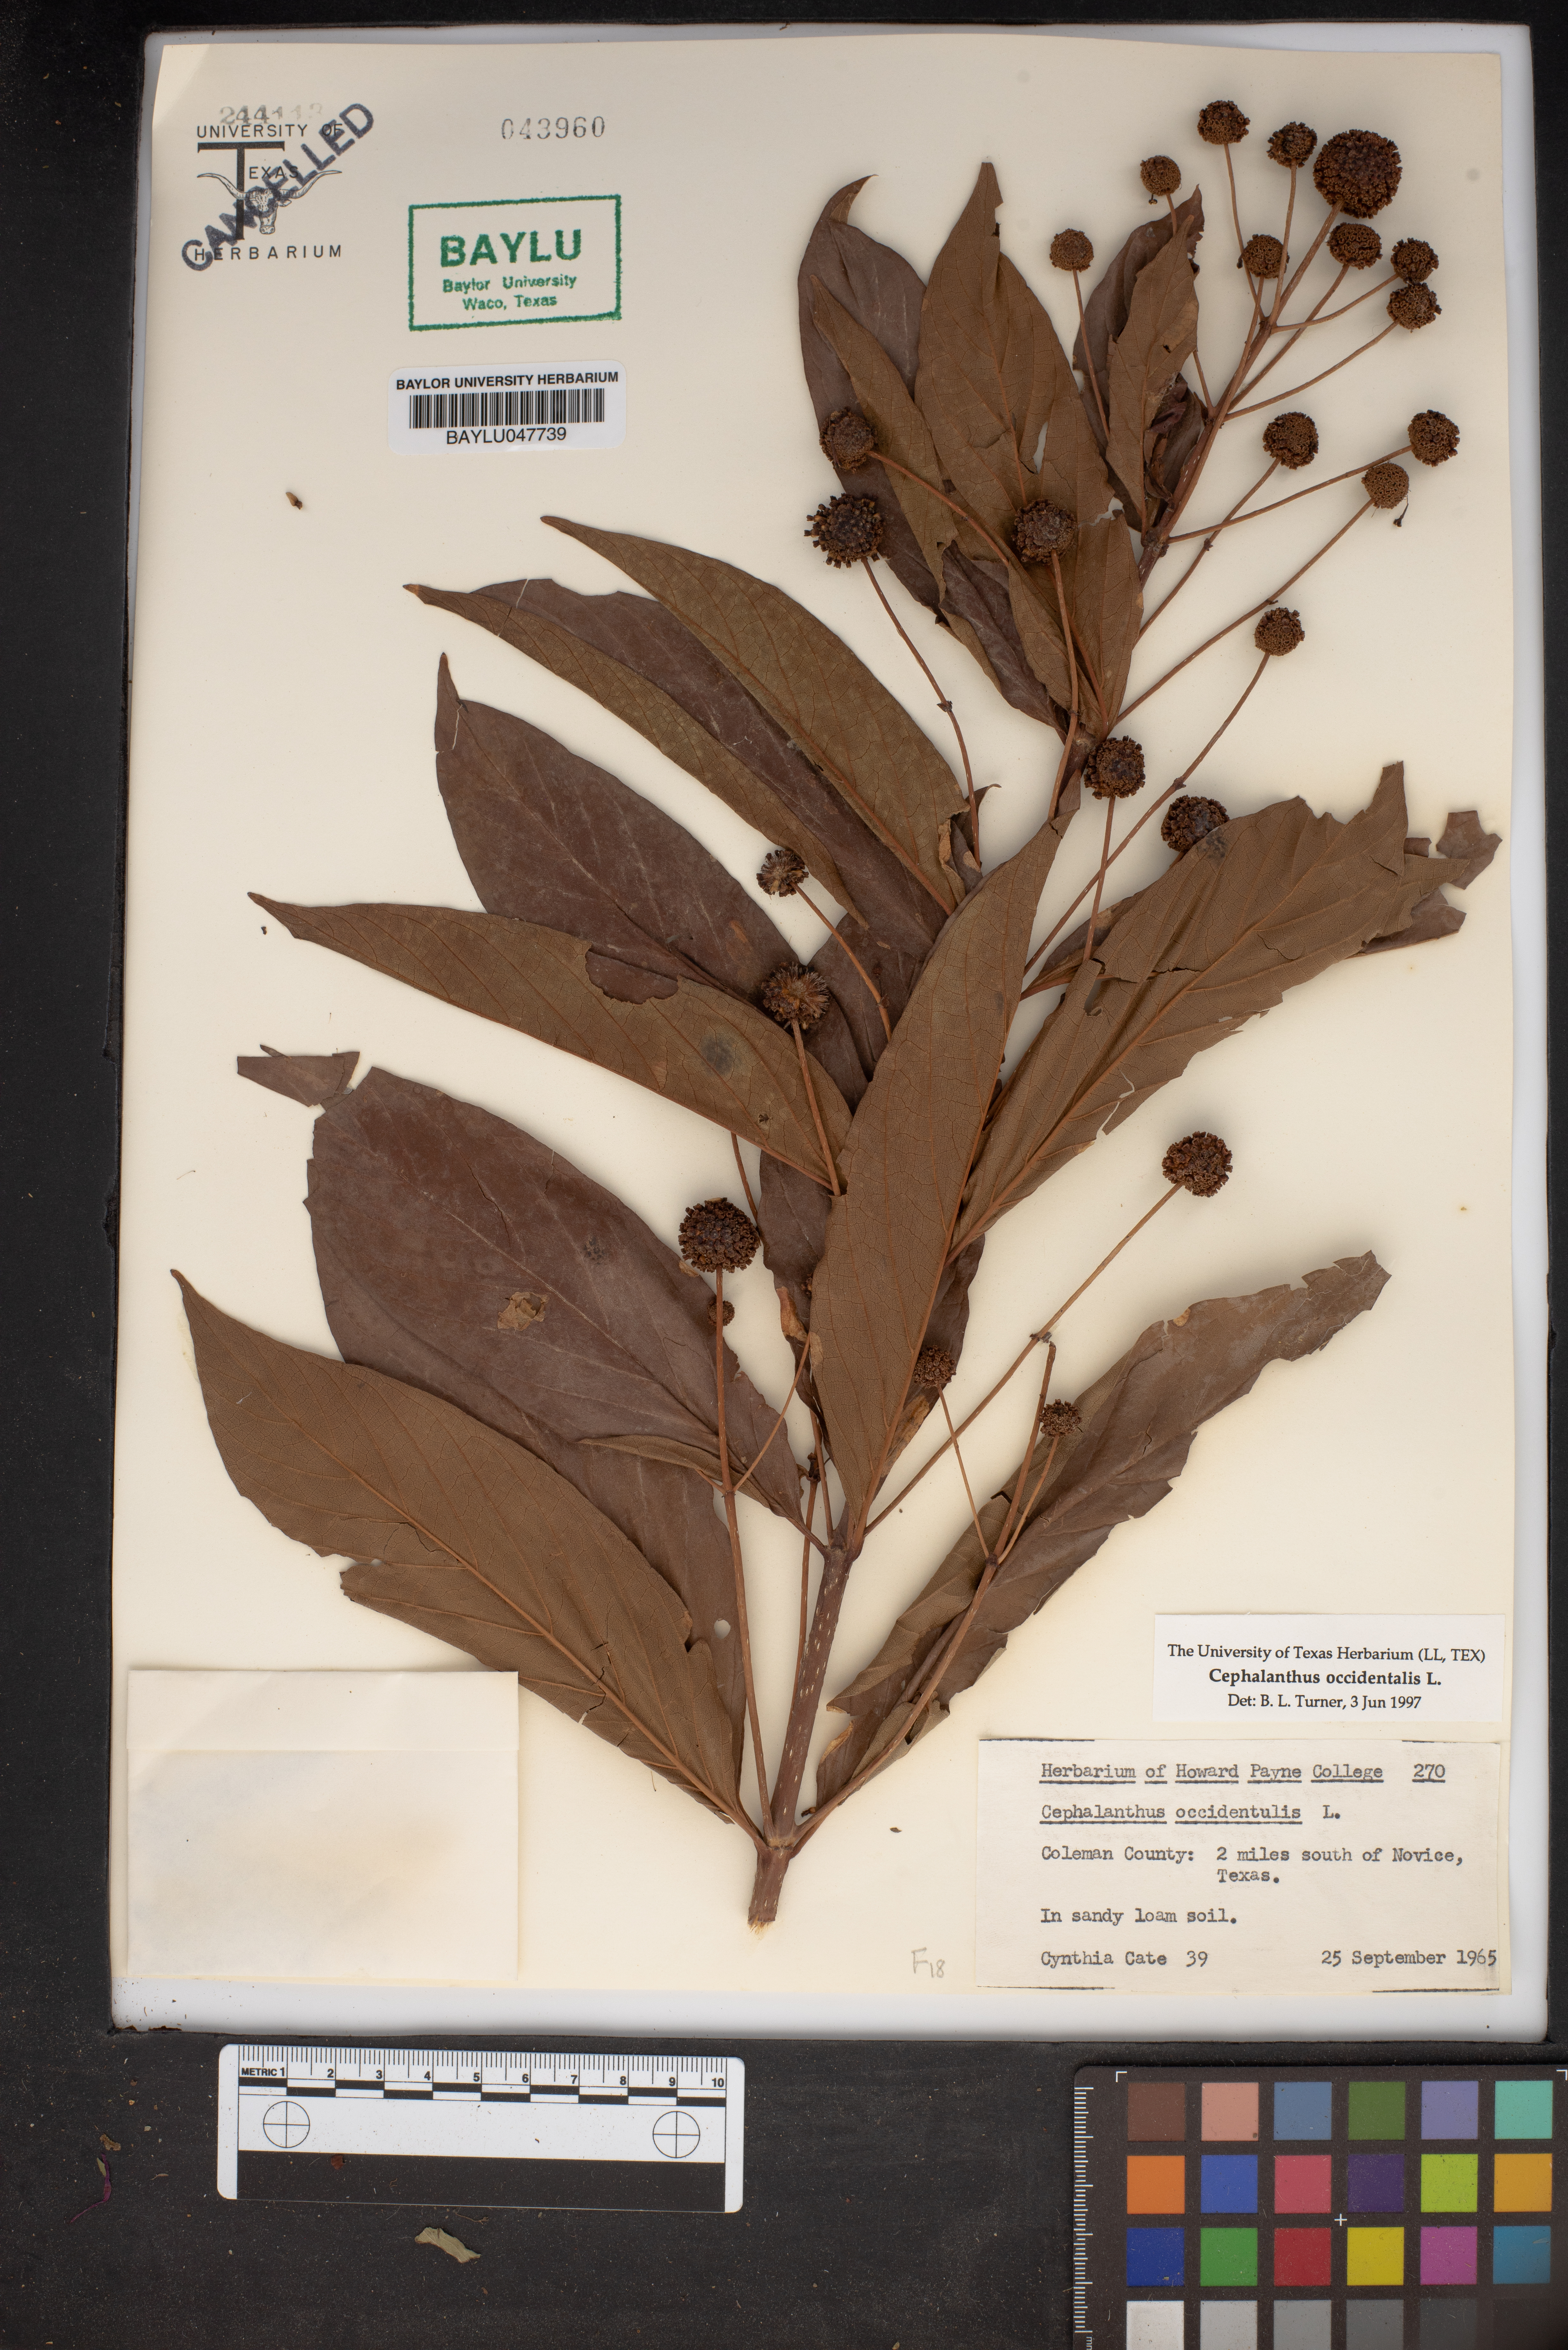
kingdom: Plantae
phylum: Tracheophyta
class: Magnoliopsida
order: Gentianales
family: Rubiaceae
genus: Cephalanthus
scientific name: Cephalanthus occidentalis
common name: Button-willow
